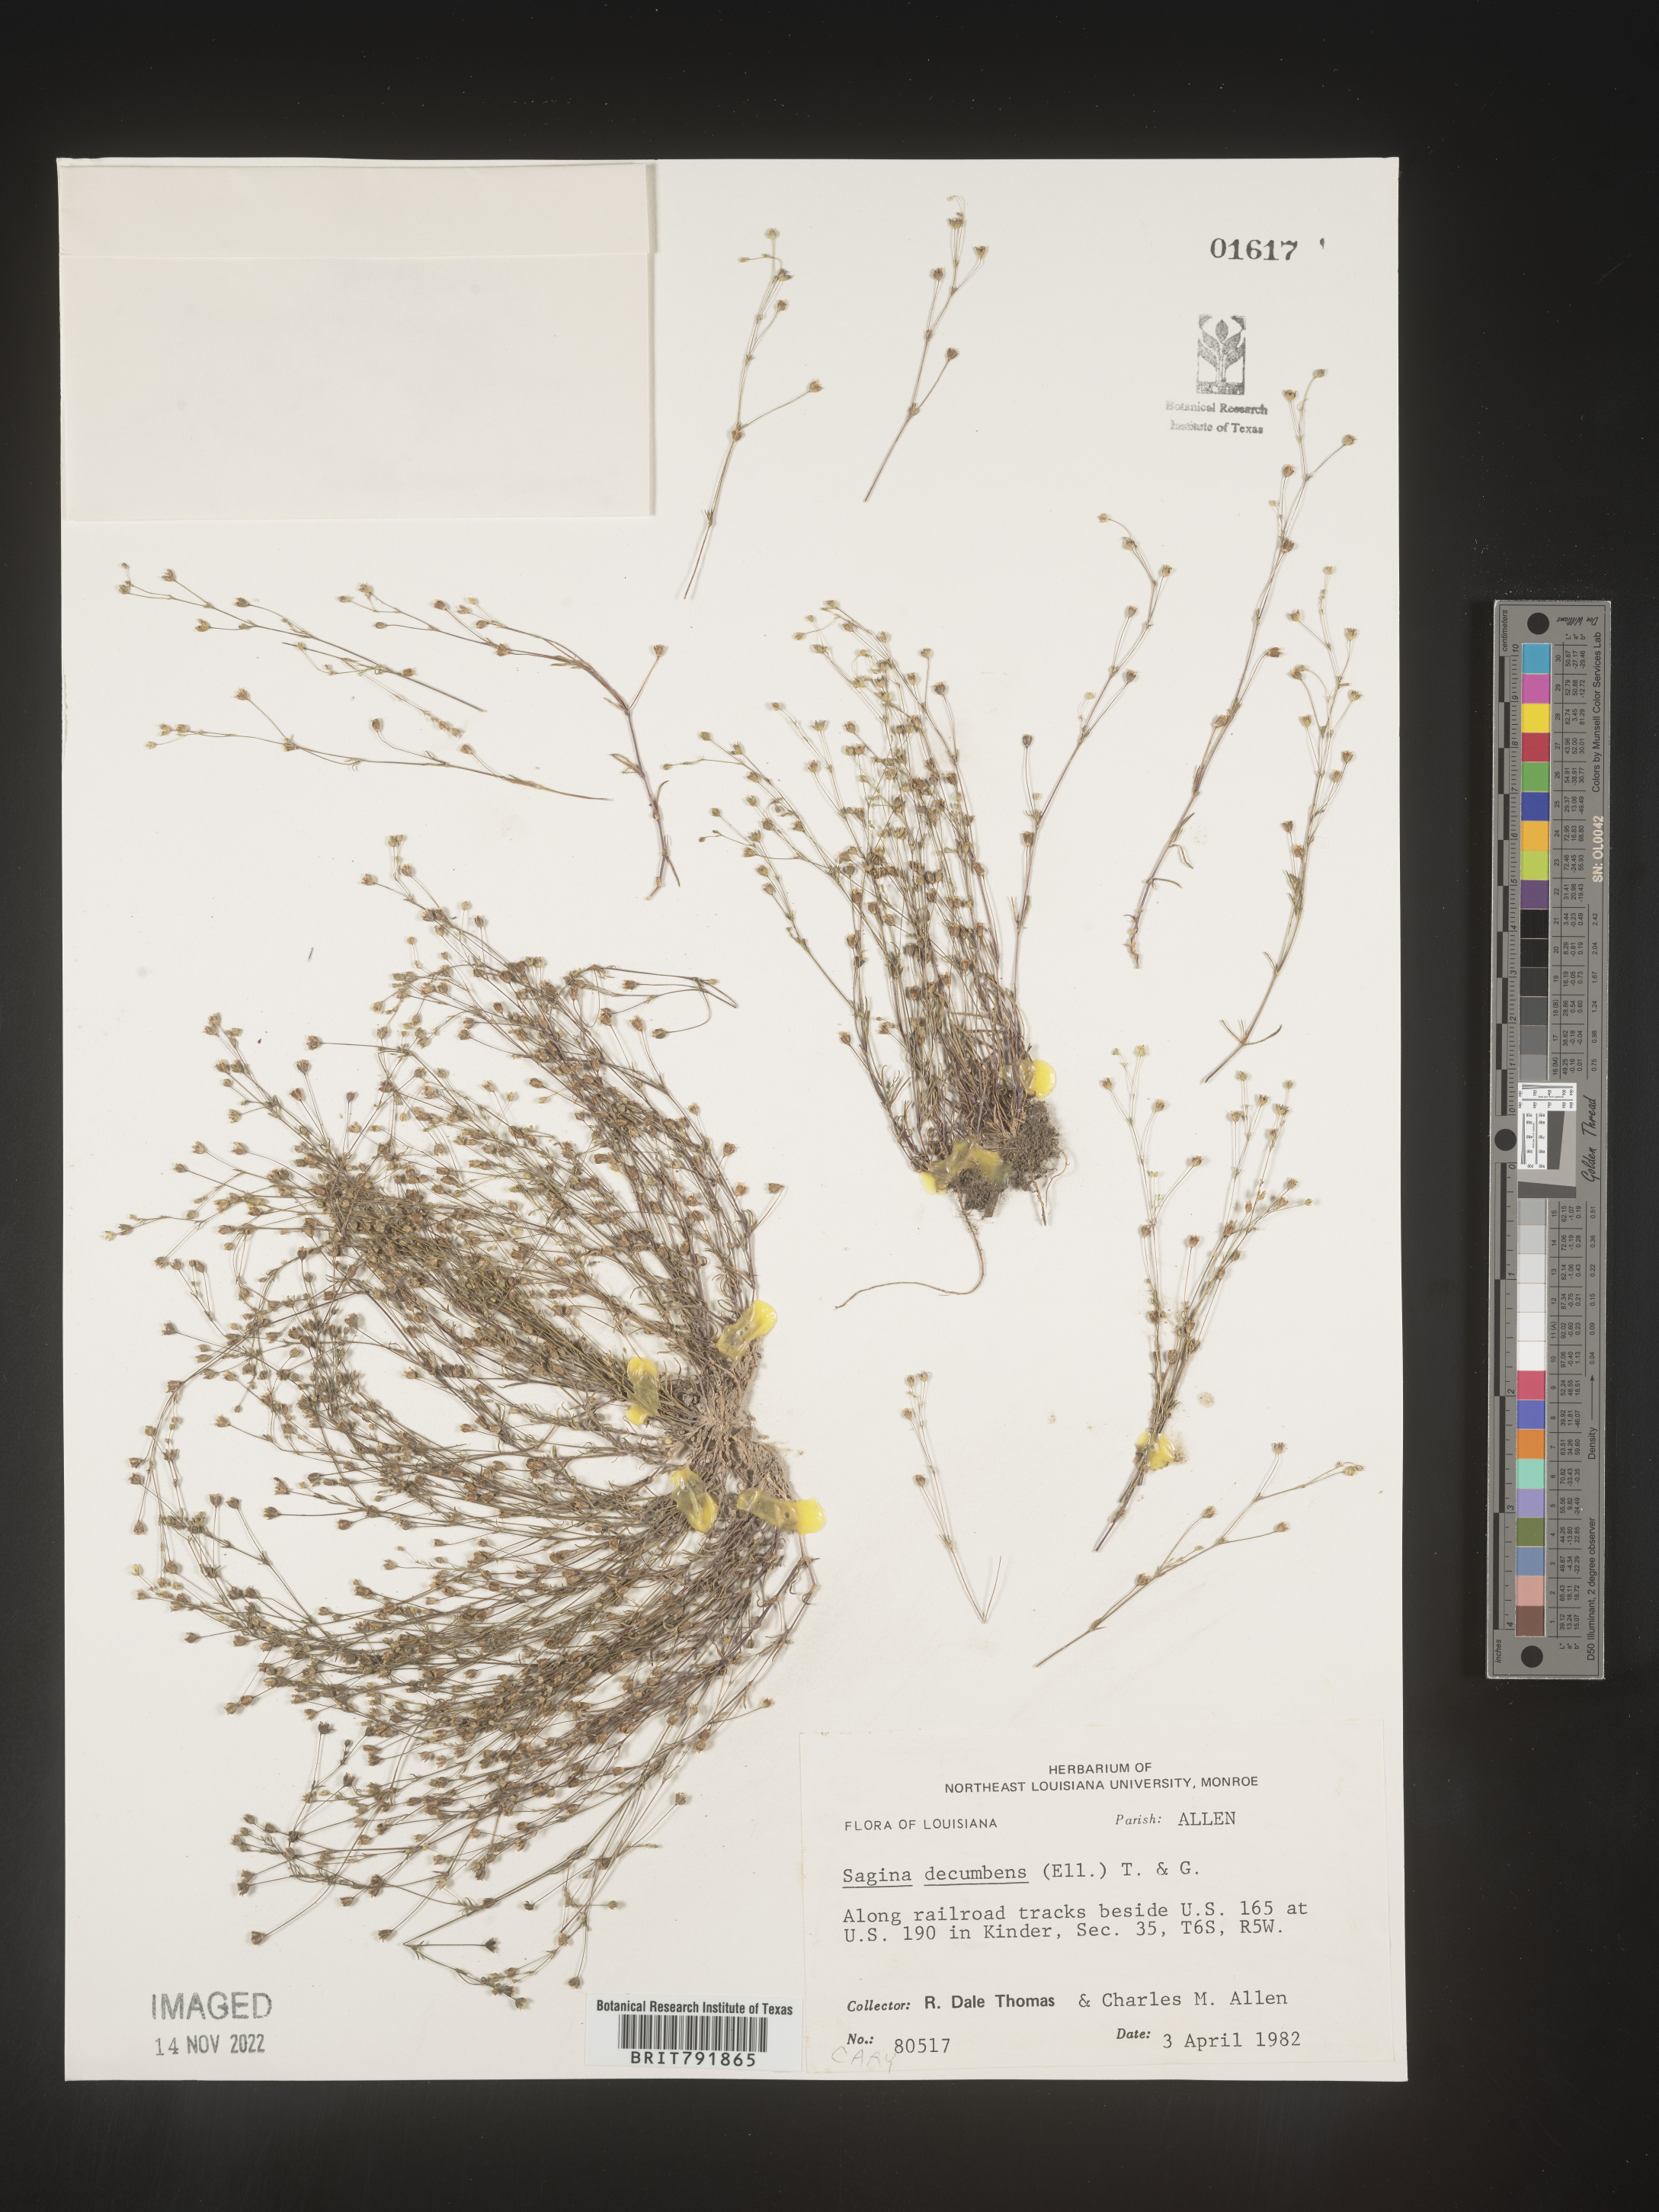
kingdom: Plantae
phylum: Tracheophyta
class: Magnoliopsida
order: Caryophyllales
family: Caryophyllaceae
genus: Sagina
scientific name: Sagina decumbens
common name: Decumbent pearlwort
